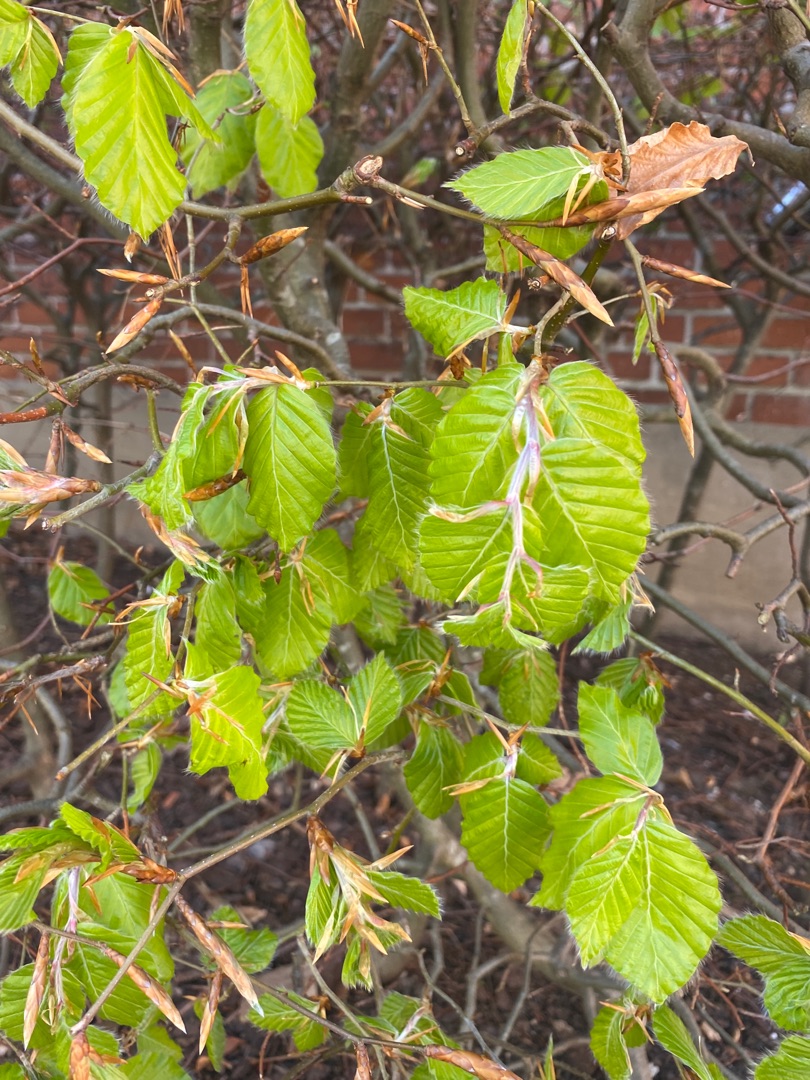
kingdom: Plantae
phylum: Tracheophyta
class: Magnoliopsida
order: Fagales
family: Fagaceae
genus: Fagus
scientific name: Fagus sylvatica
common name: Bøg
